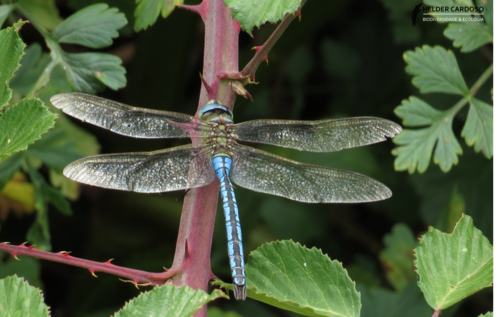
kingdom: Animalia
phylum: Arthropoda
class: Insecta
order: Odonata
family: Aeshnidae
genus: Anax
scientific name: Anax imperator
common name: Emperor dragonfly
